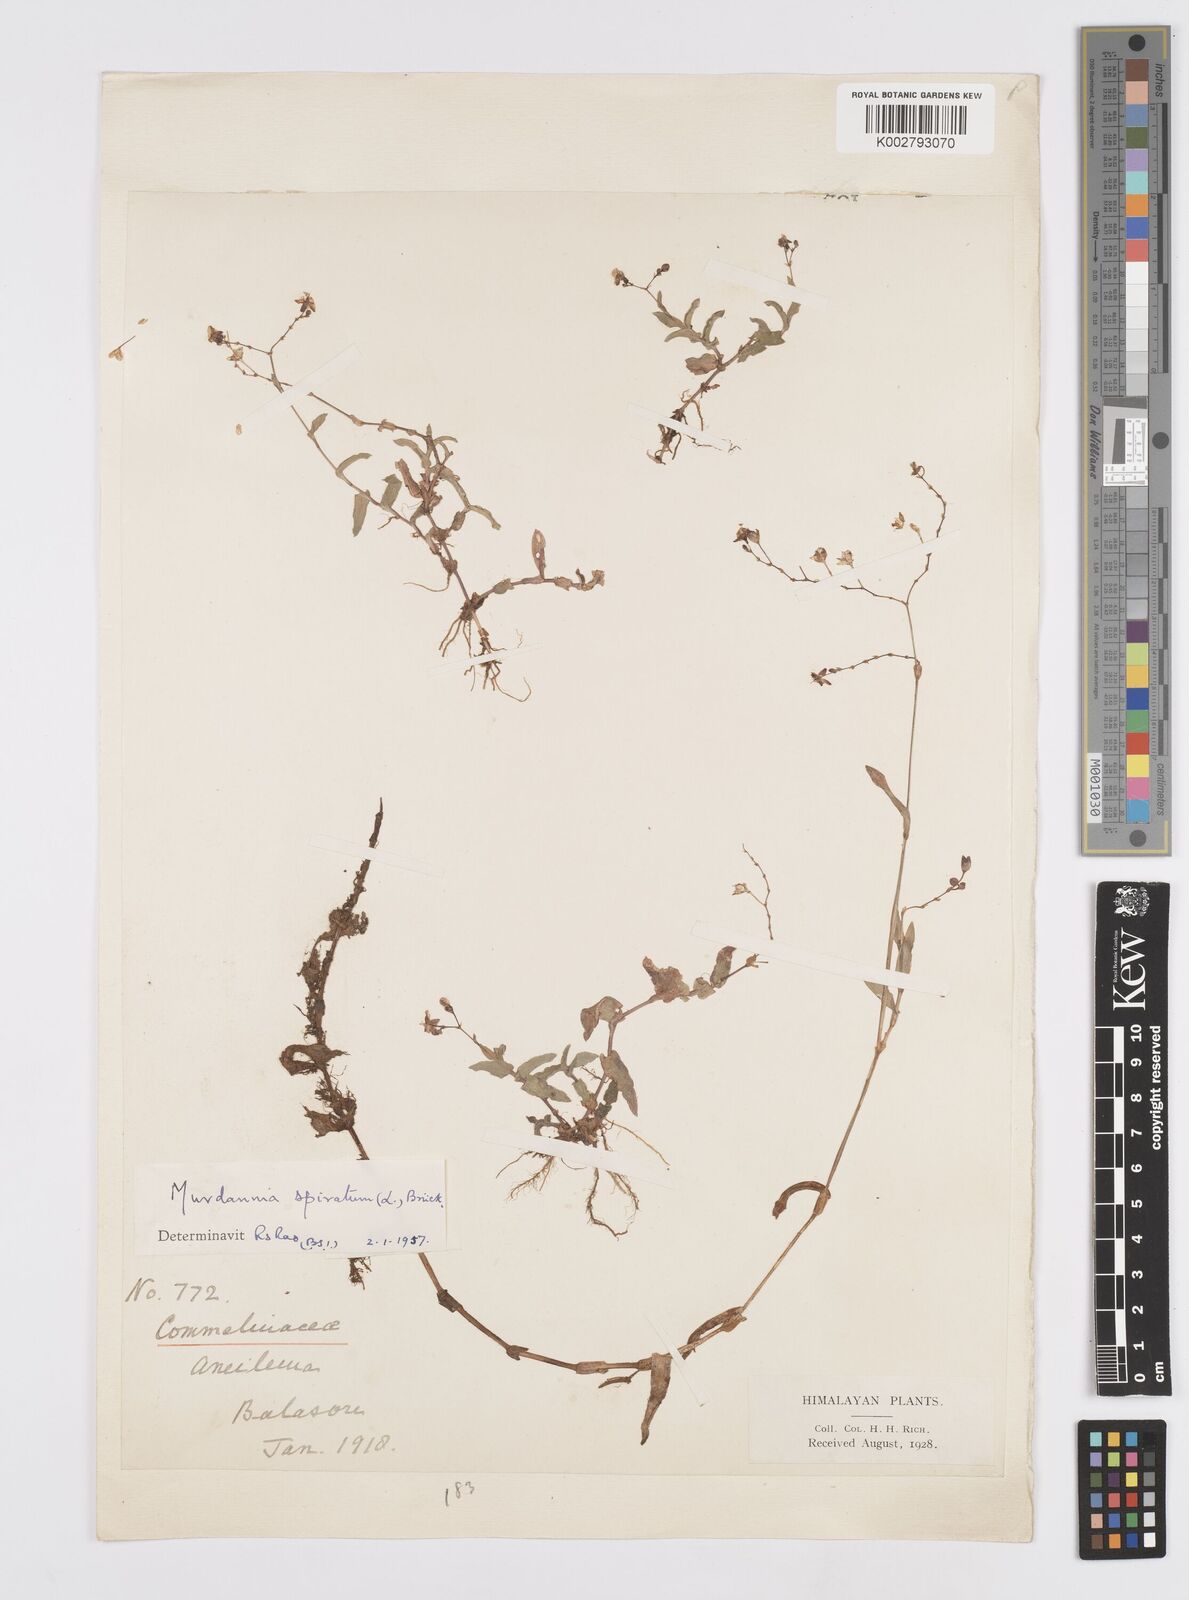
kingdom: Plantae
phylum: Tracheophyta
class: Liliopsida
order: Commelinales
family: Commelinaceae
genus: Murdannia
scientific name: Murdannia spirata
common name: Asiatic dewflower
